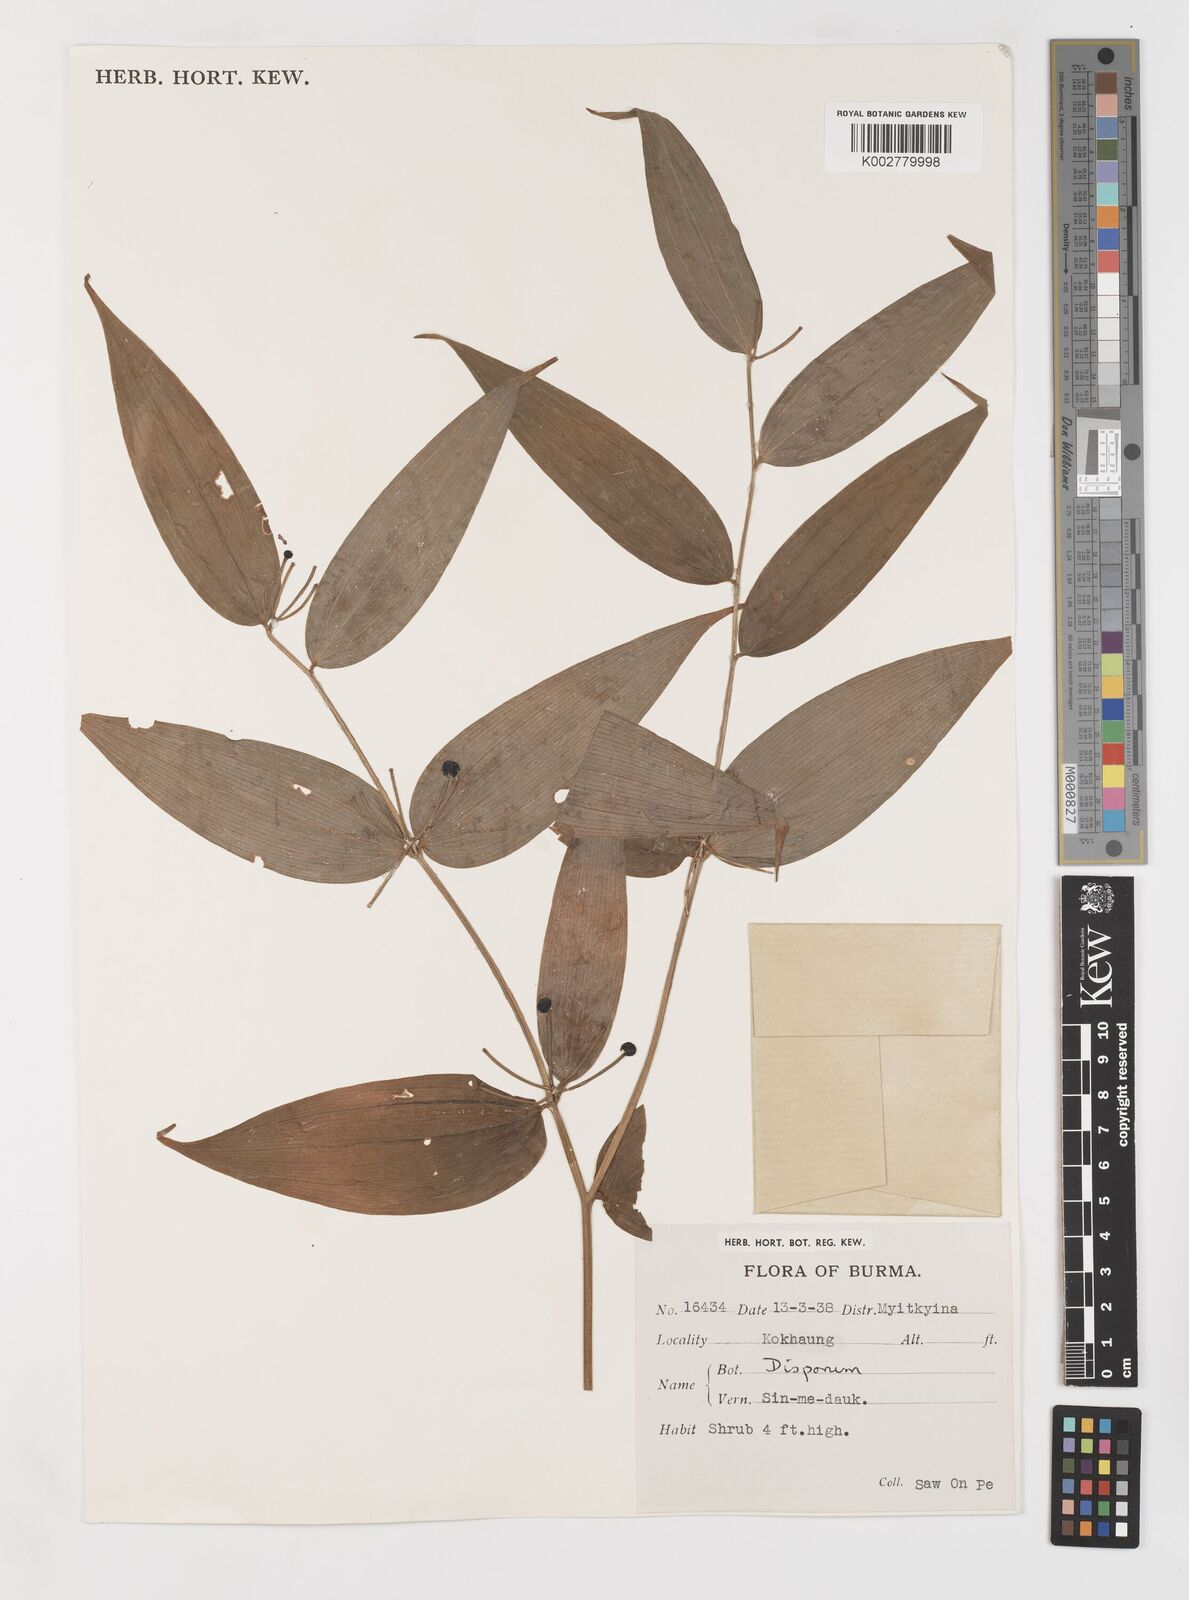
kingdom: Plantae
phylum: Tracheophyta
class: Liliopsida
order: Liliales
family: Colchicaceae
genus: Disporum
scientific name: Disporum
